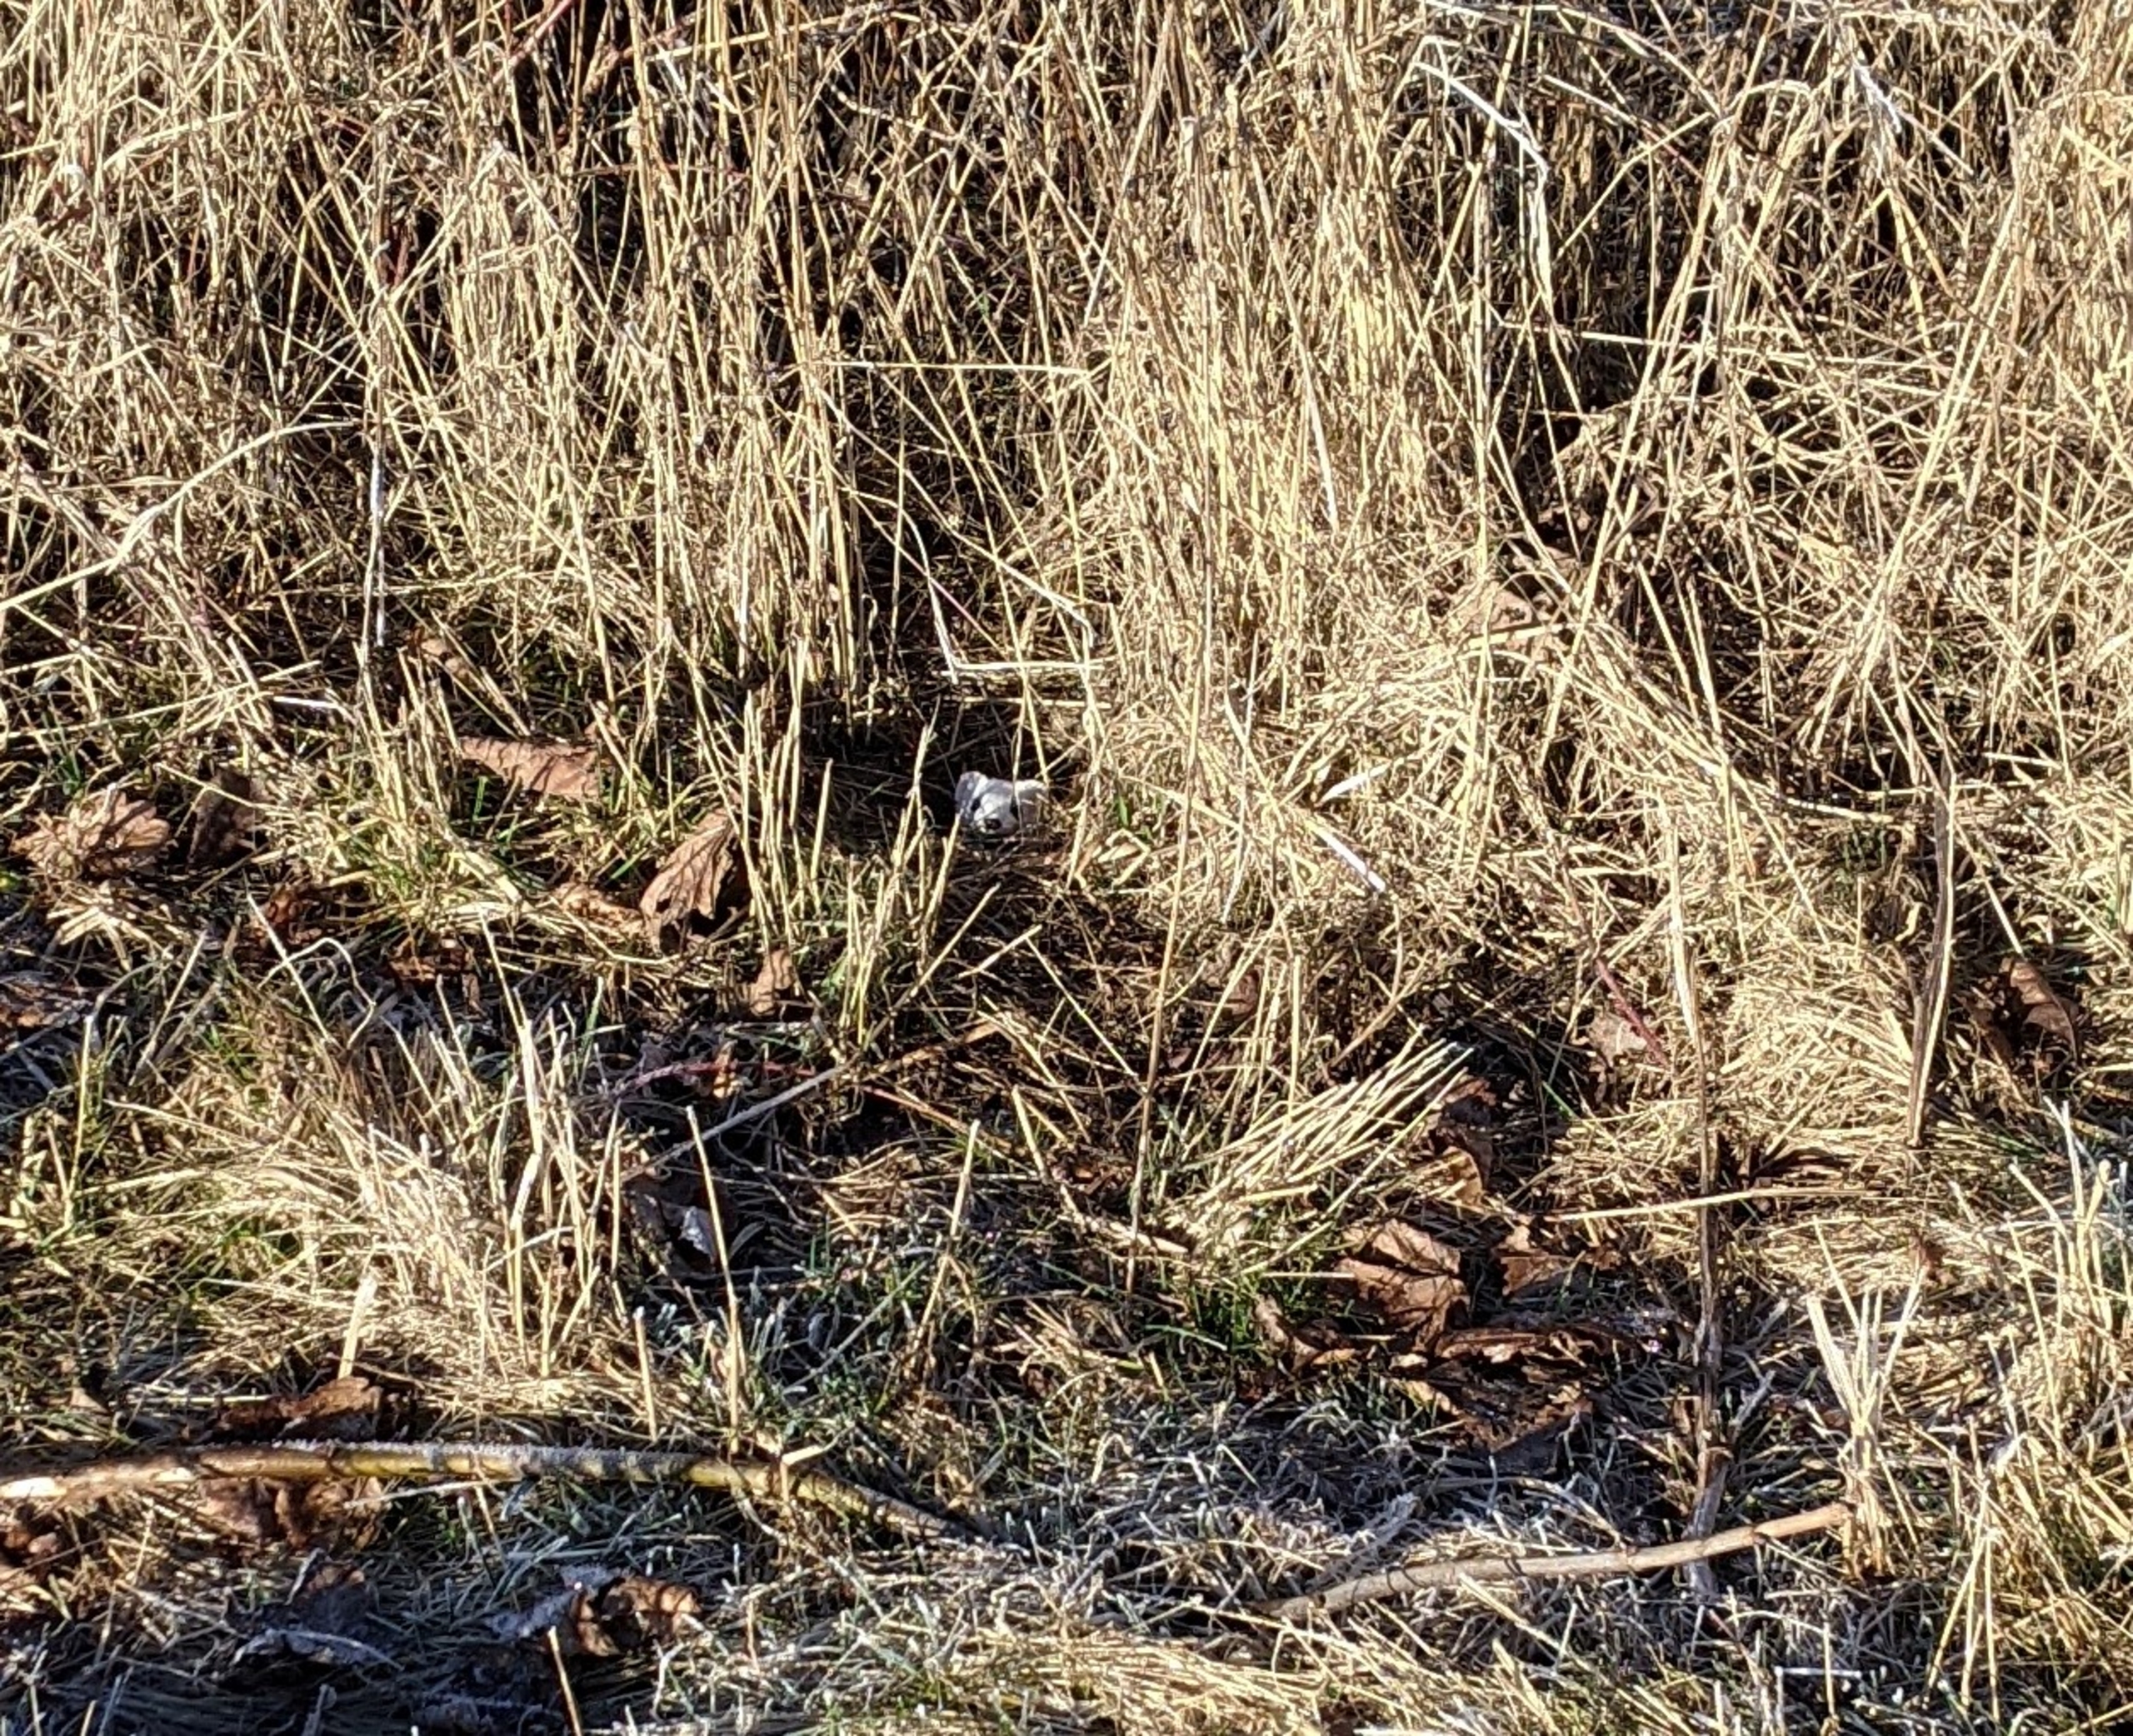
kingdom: Animalia
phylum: Chordata
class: Mammalia
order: Carnivora
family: Mustelidae
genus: Mustela
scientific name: Mustela erminea
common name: Lækat
